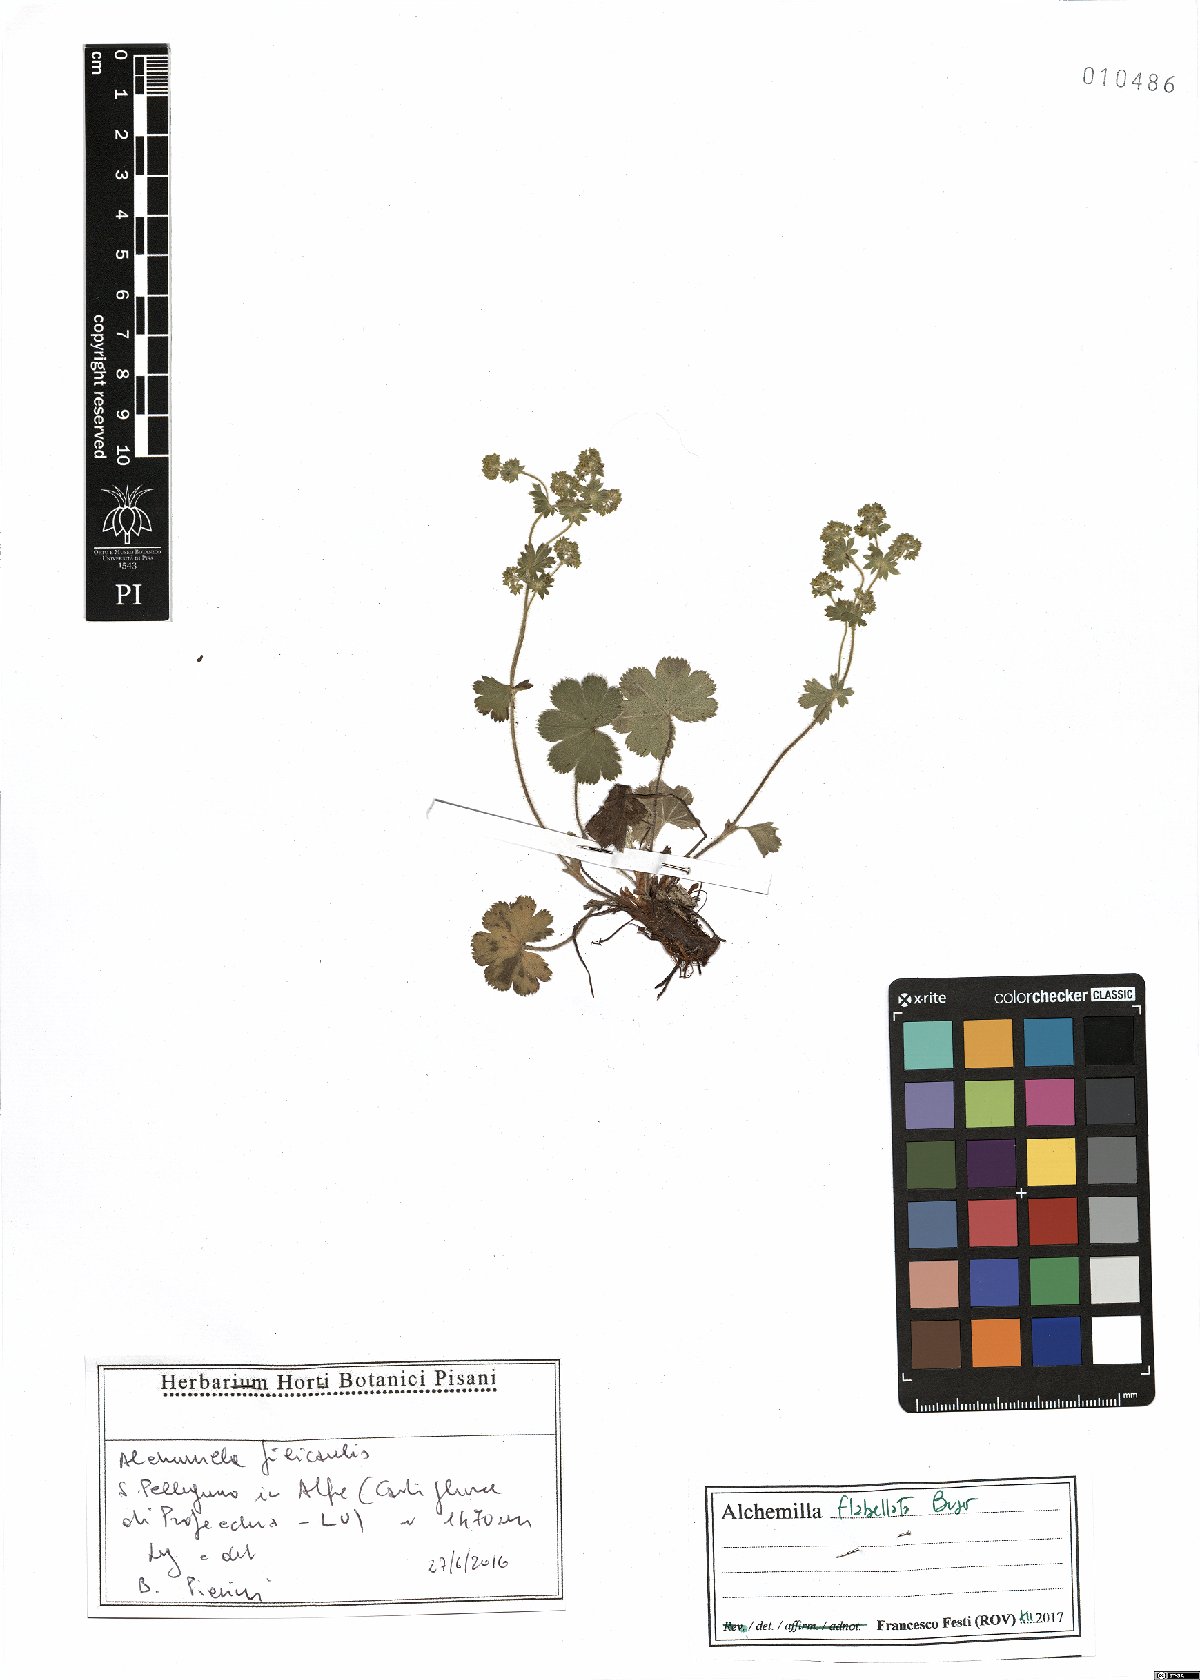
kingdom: Plantae
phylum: Tracheophyta
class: Magnoliopsida
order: Rosales
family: Rosaceae
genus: Alchemilla
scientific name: Alchemilla flabellata
